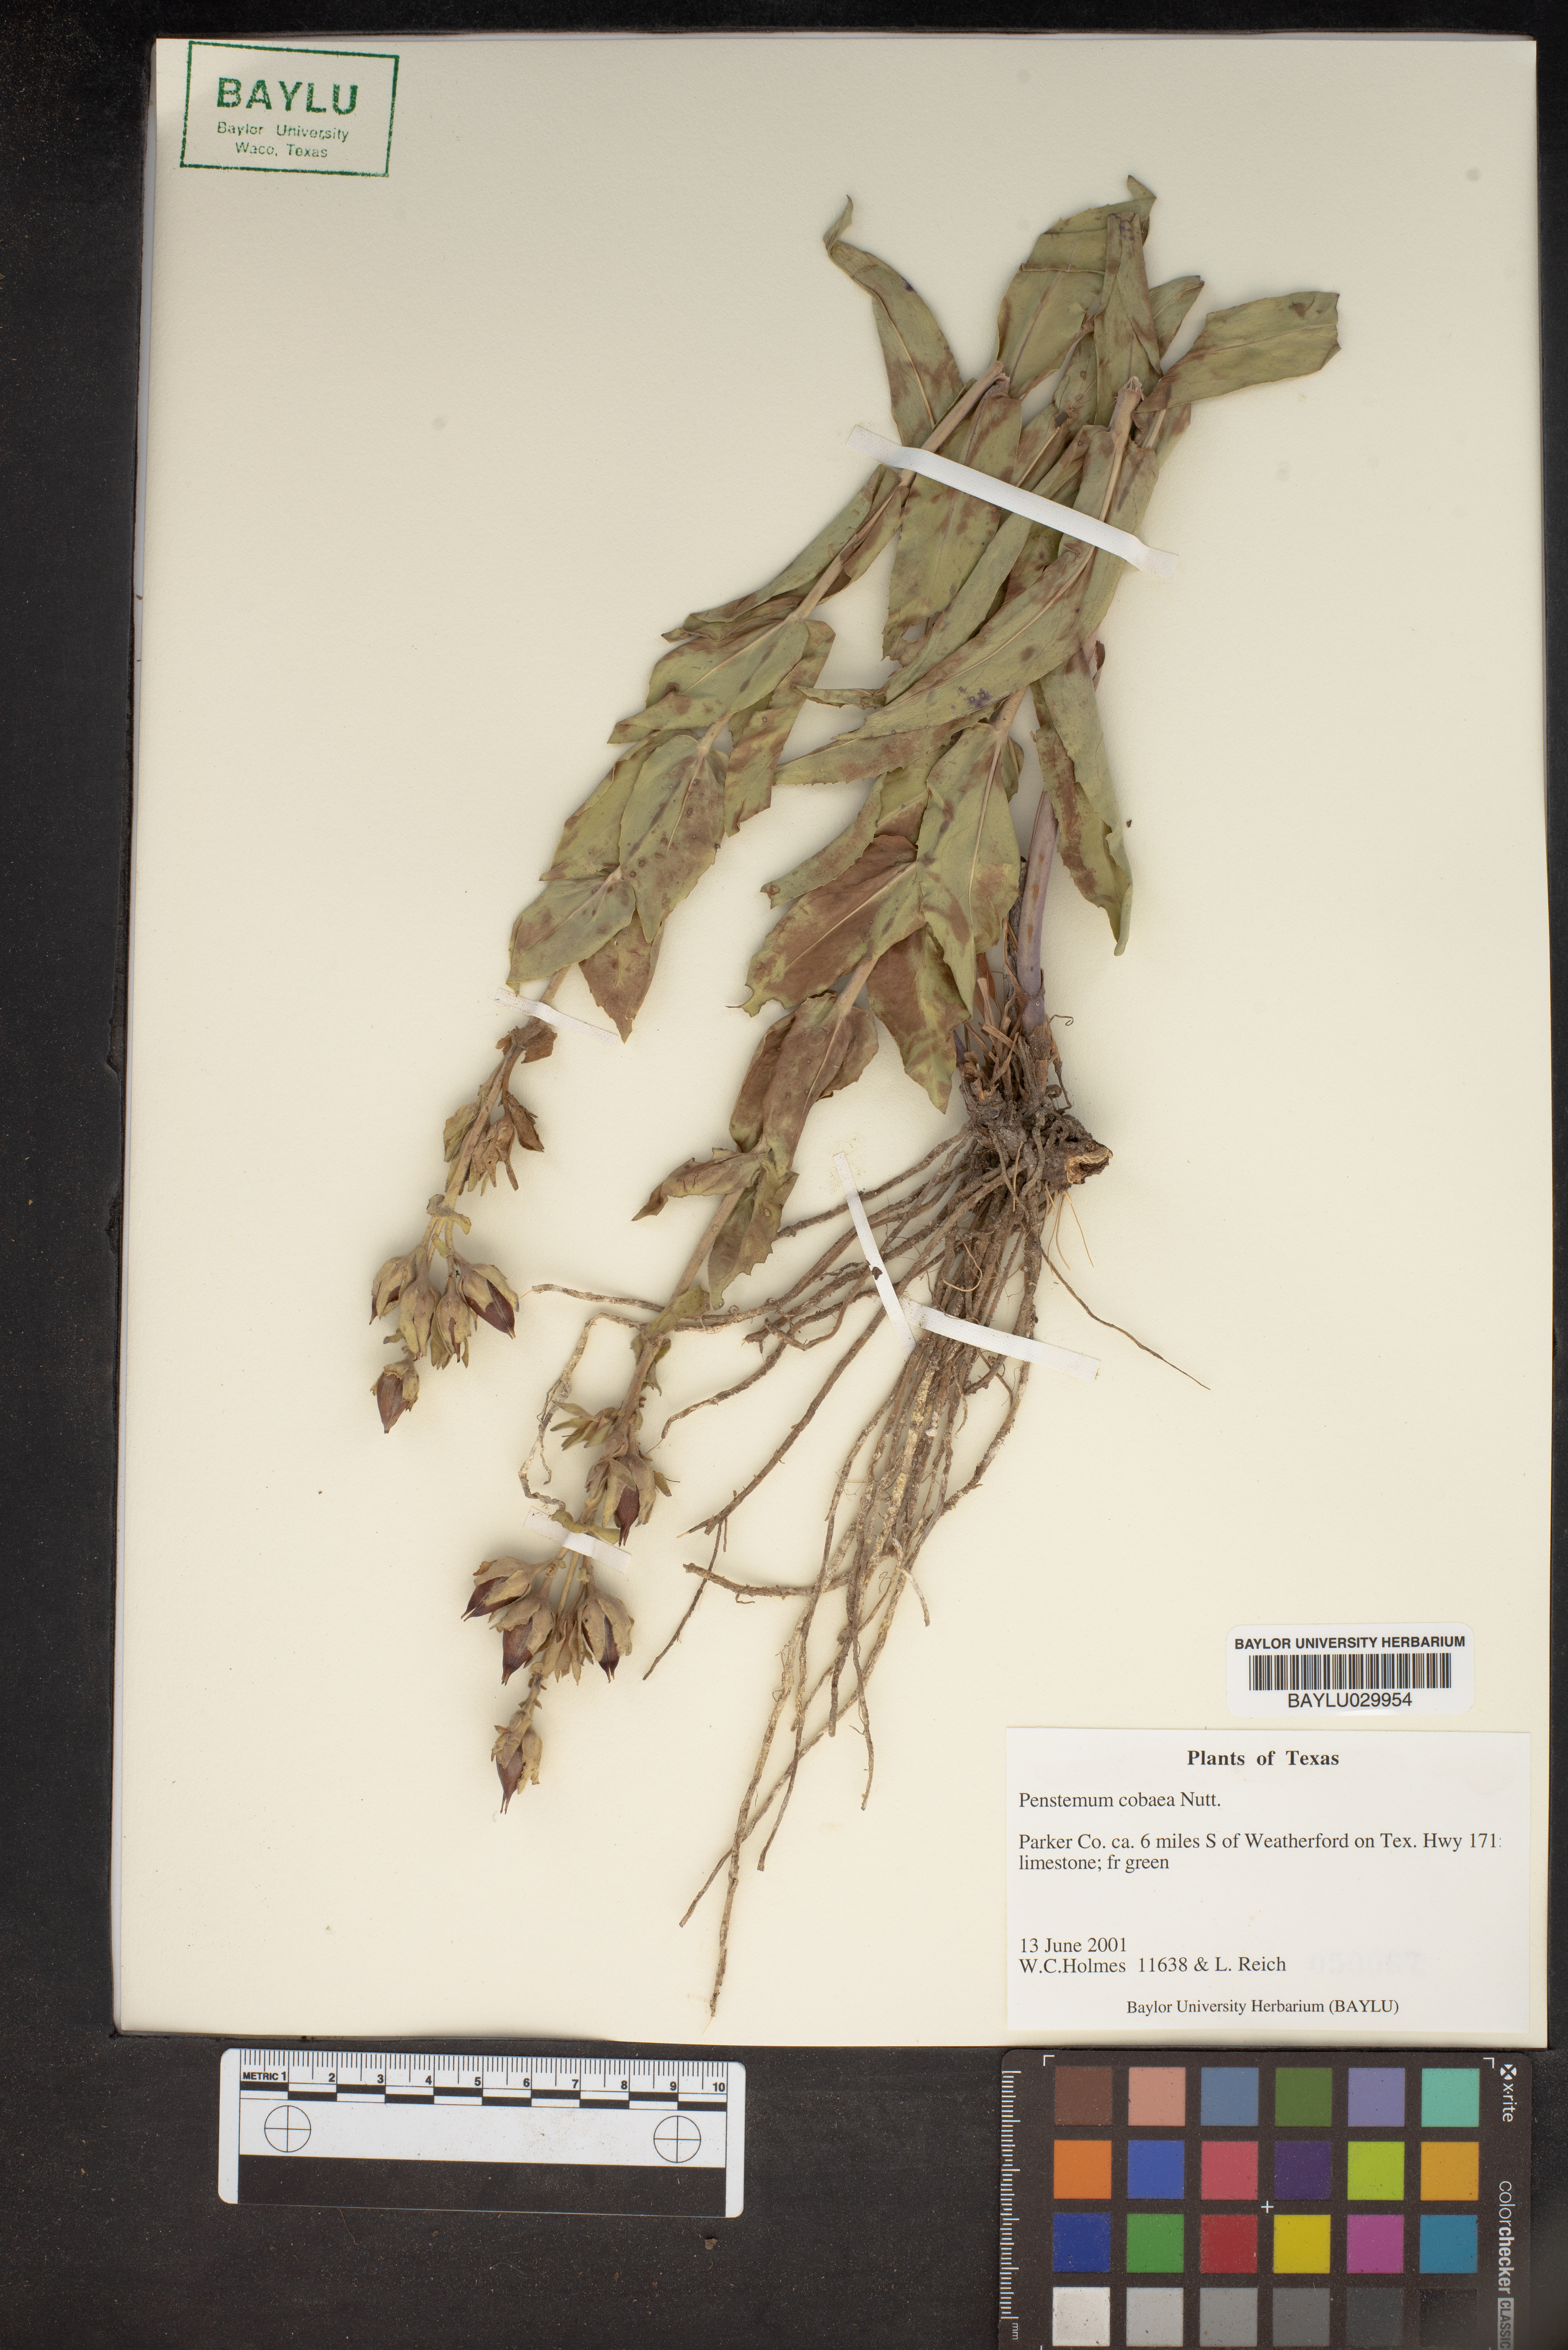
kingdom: Plantae
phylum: Tracheophyta
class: Magnoliopsida
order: Lamiales
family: Plantaginaceae
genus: Penstemon
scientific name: Penstemon cobaea
